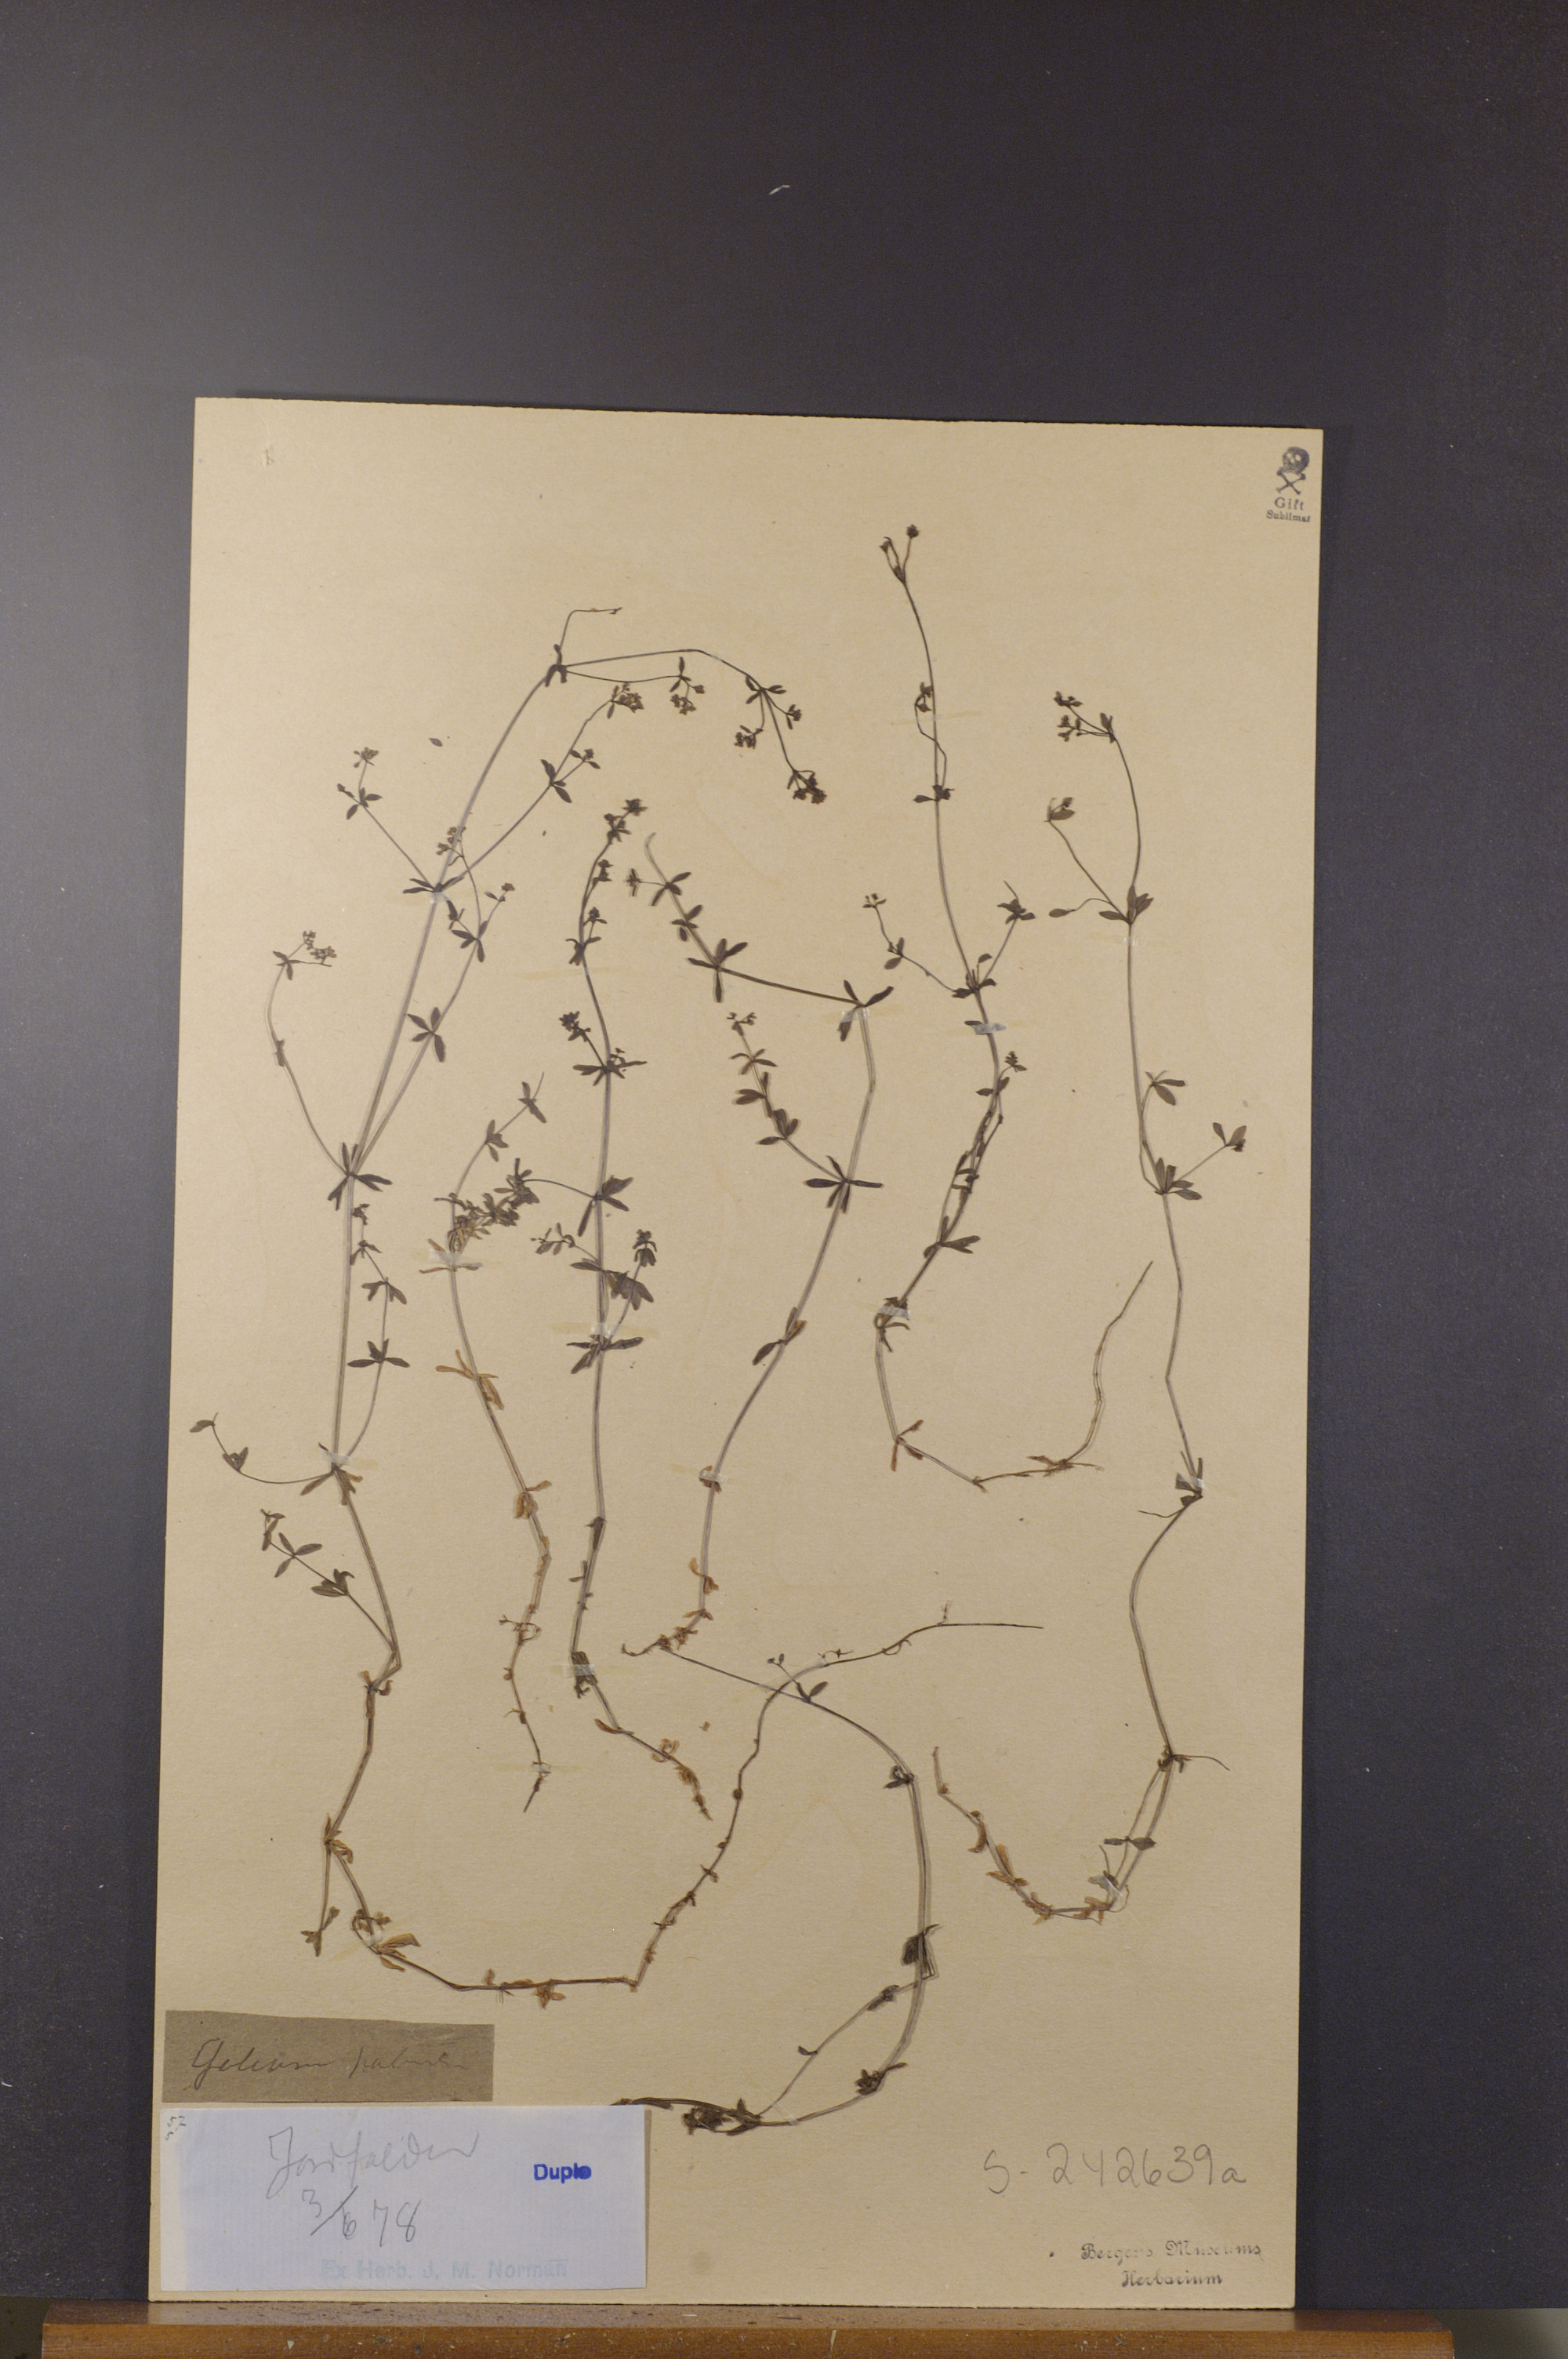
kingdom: Plantae
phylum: Tracheophyta
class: Magnoliopsida
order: Gentianales
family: Rubiaceae
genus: Galium
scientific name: Galium palustre
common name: Common marsh-bedstraw
